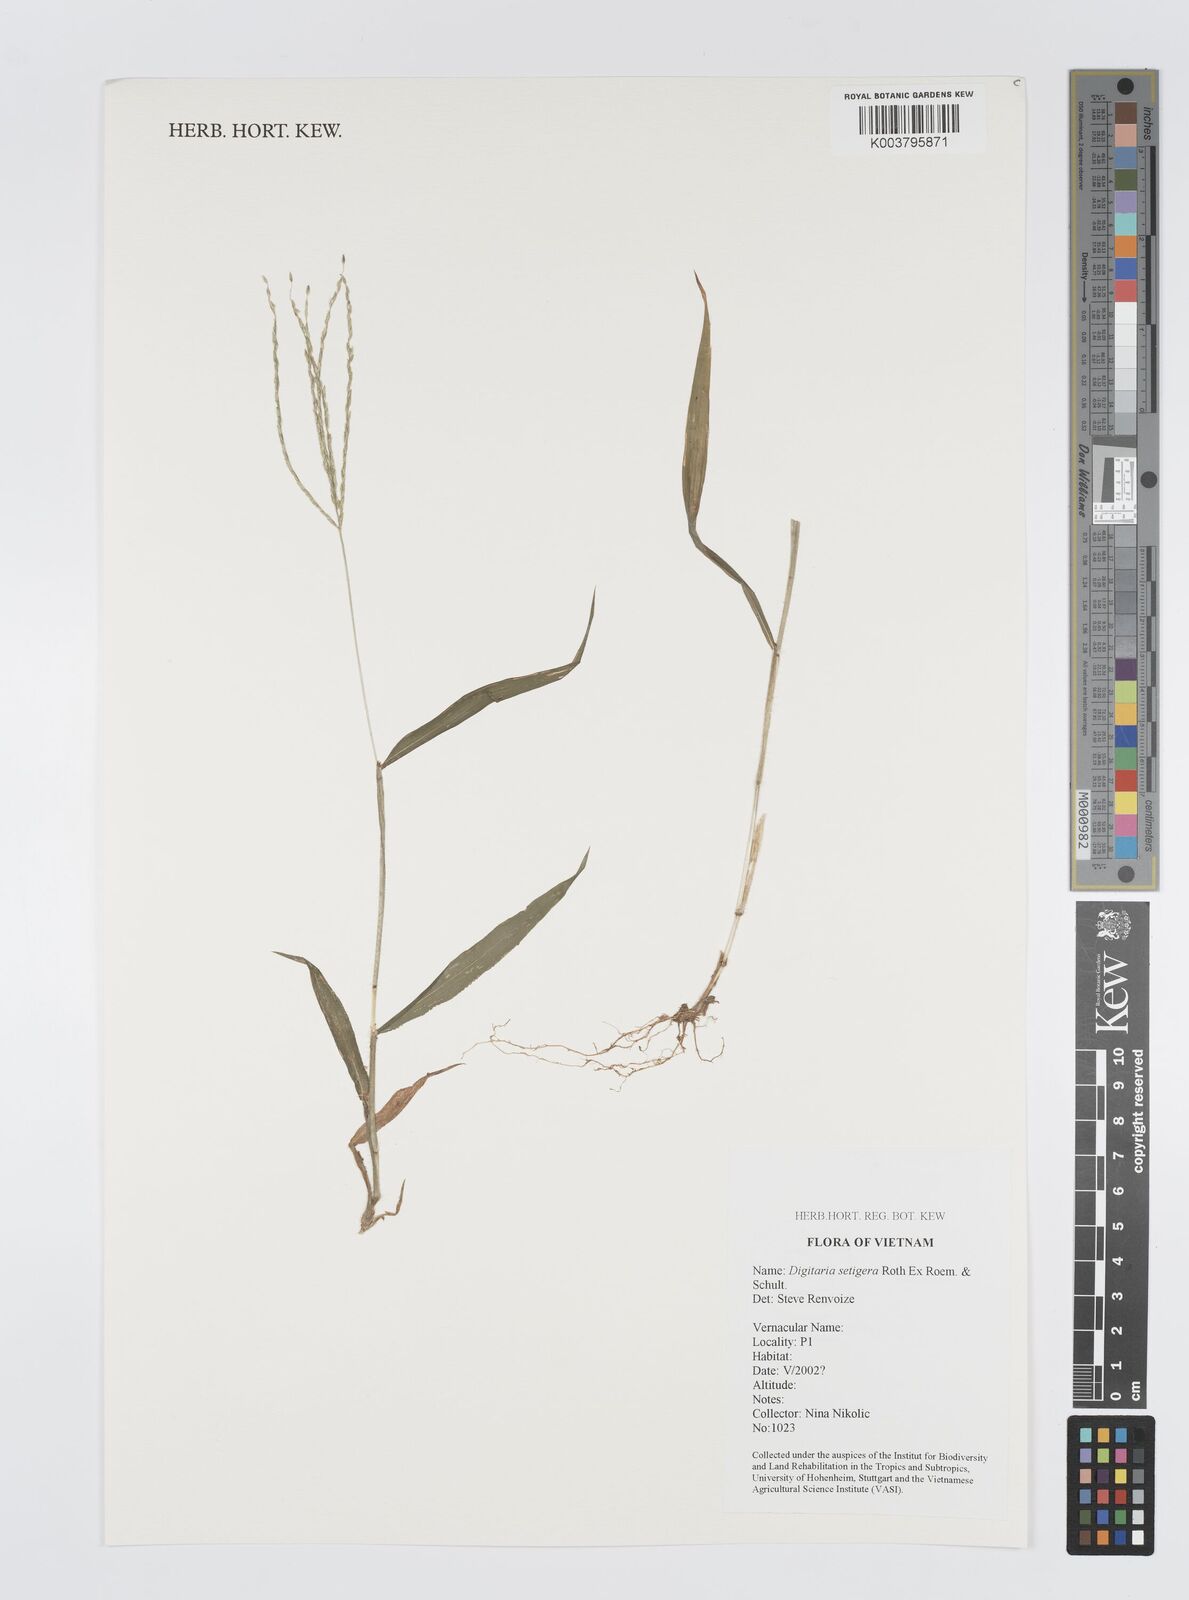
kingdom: Plantae
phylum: Tracheophyta
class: Liliopsida
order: Poales
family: Poaceae
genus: Digitaria
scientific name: Digitaria setigera
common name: East indian crabgrass
